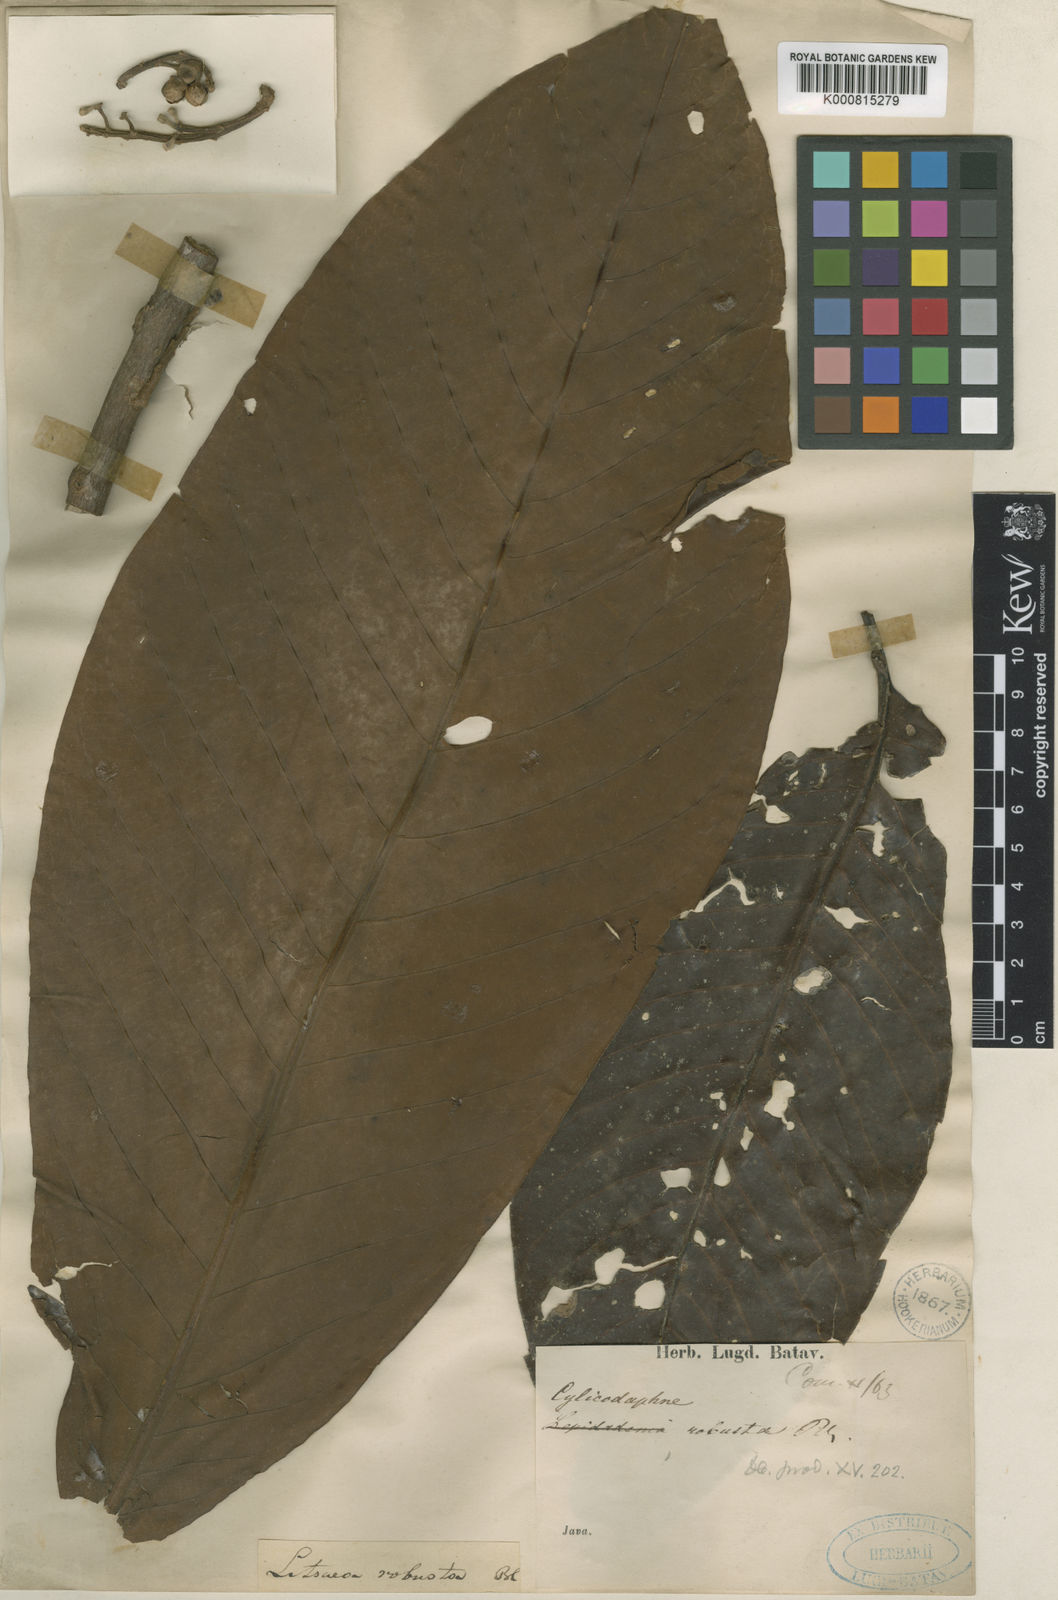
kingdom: Plantae
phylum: Tracheophyta
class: Magnoliopsida
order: Laurales
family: Lauraceae
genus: Litsea
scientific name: Litsea robusta
